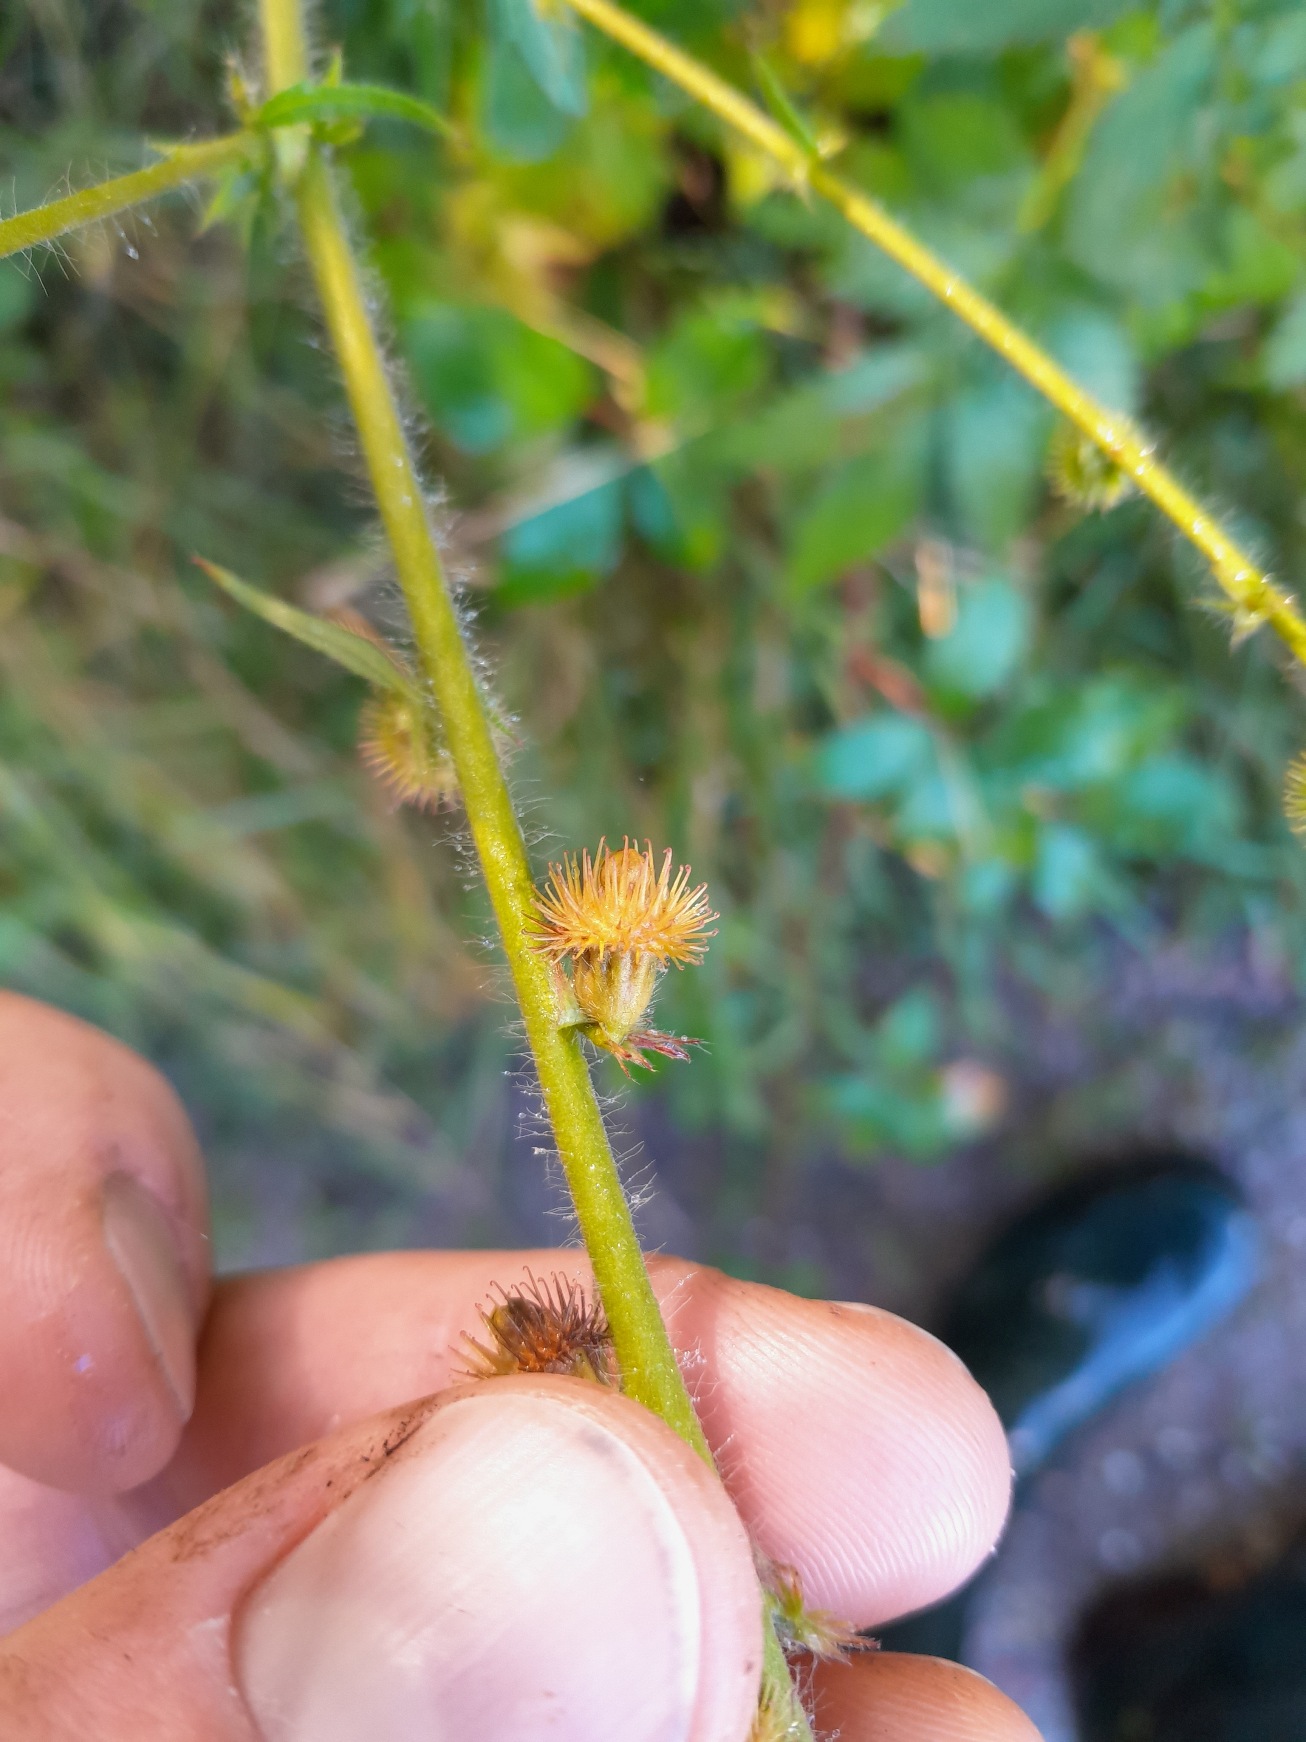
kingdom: Plantae
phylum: Tracheophyta
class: Magnoliopsida
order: Rosales
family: Rosaceae
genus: Agrimonia
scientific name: Agrimonia procera
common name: Vellugtende agermåne
